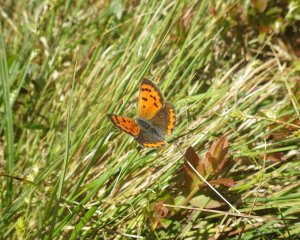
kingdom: Animalia
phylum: Arthropoda
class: Insecta
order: Lepidoptera
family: Lycaenidae
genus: Lycaena
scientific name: Lycaena phlaeas
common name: American Copper
